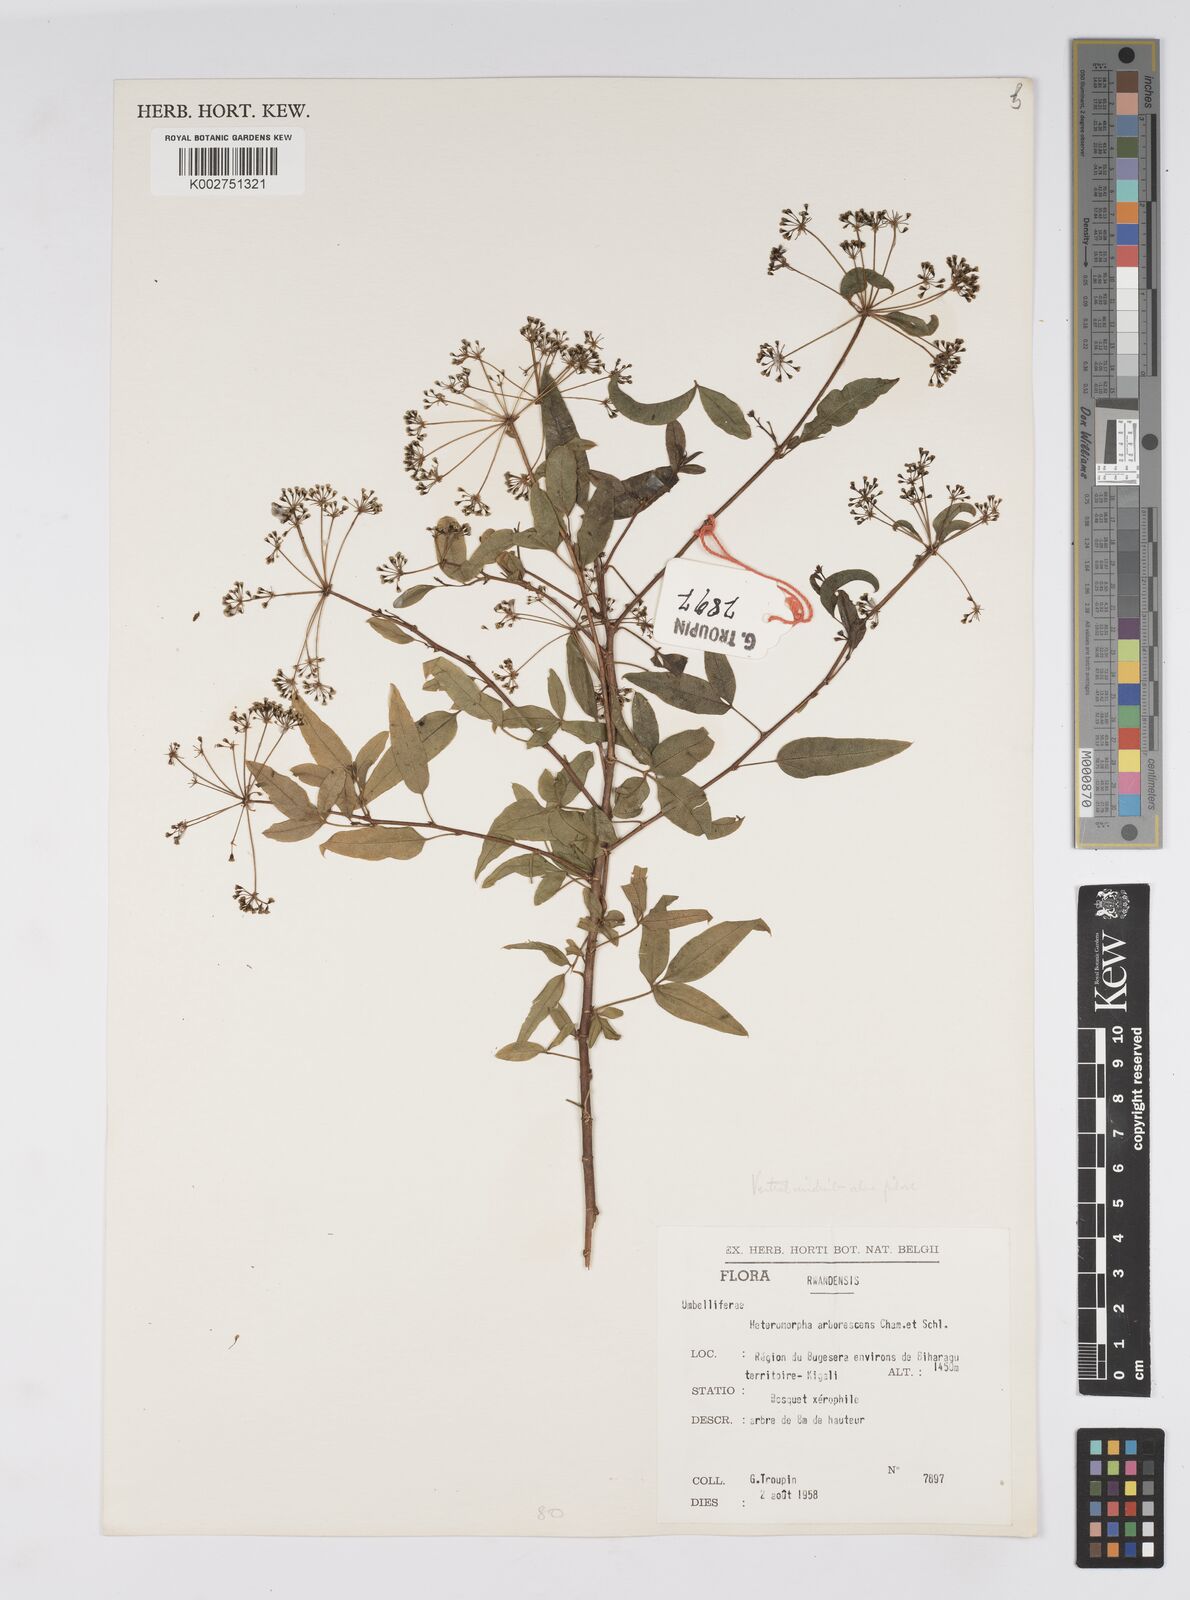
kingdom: Plantae
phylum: Tracheophyta
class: Magnoliopsida
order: Apiales
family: Apiaceae
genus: Heteromorpha
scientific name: Heteromorpha arborescens
